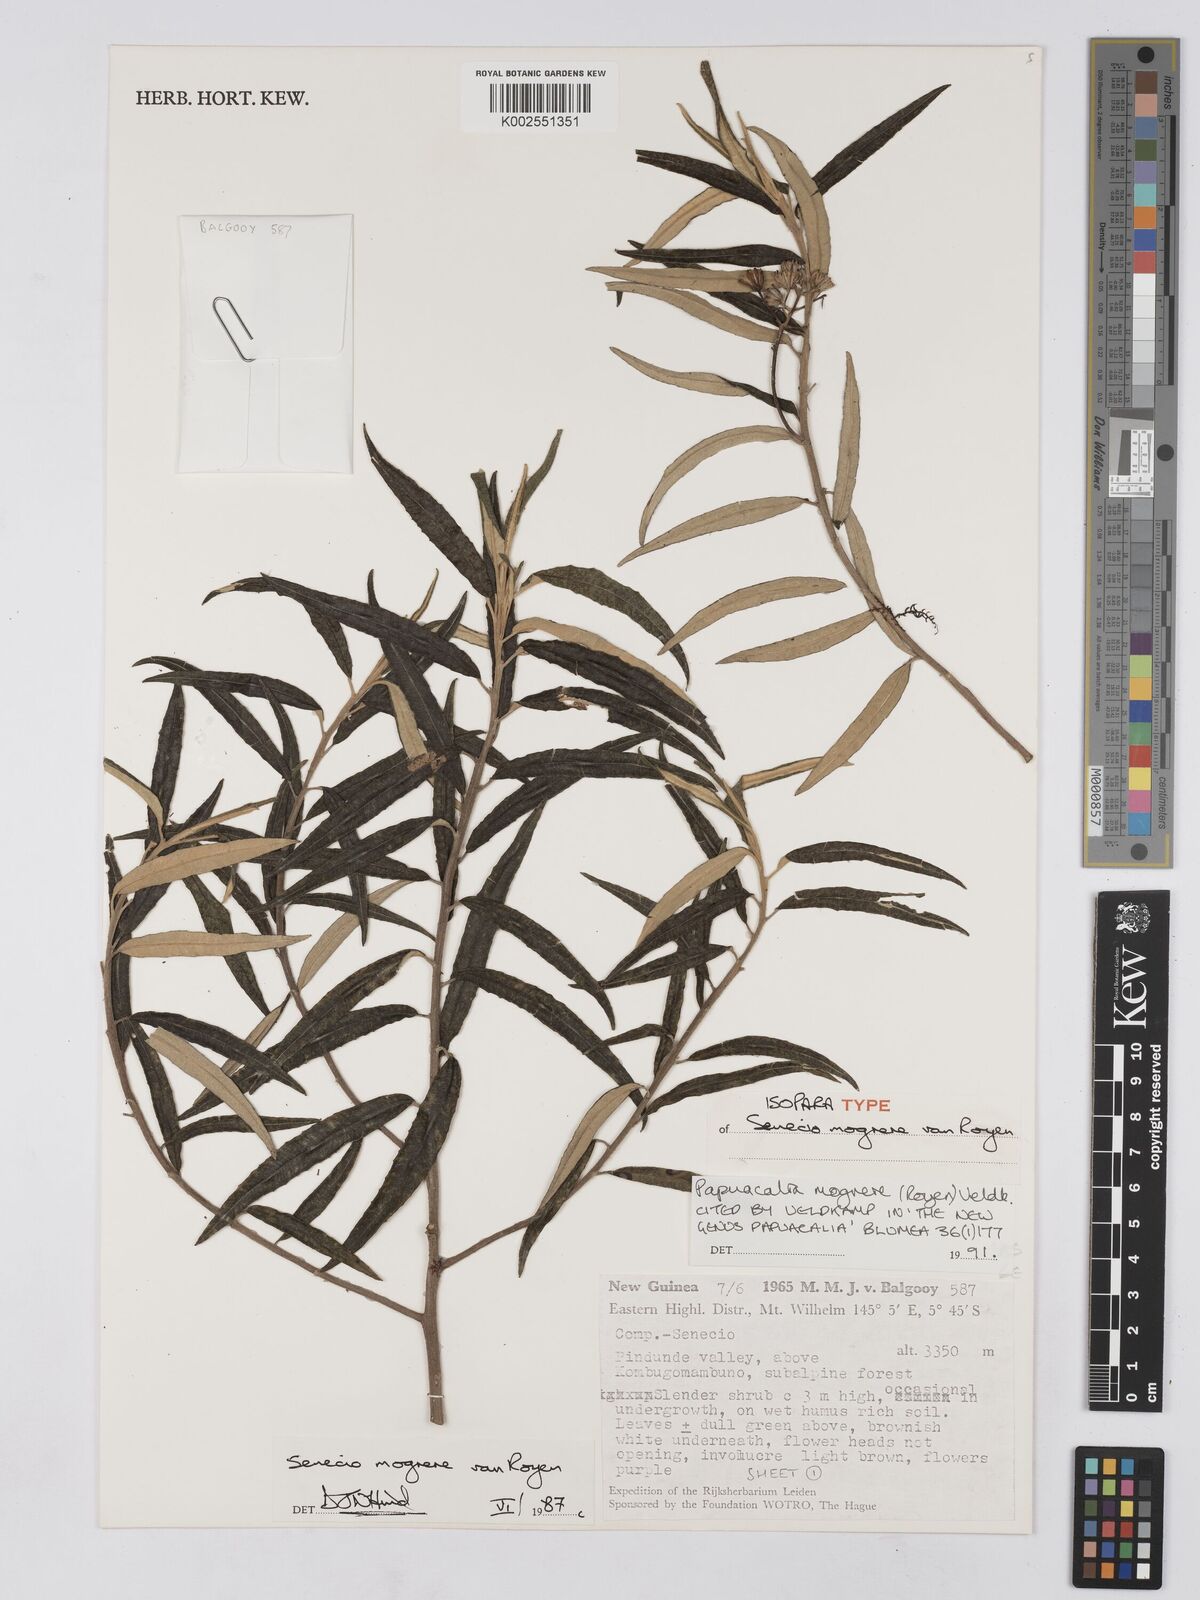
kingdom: Plantae
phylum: Tracheophyta
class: Magnoliopsida
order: Asterales
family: Asteraceae
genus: Papuacalia
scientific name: Papuacalia mogrere
